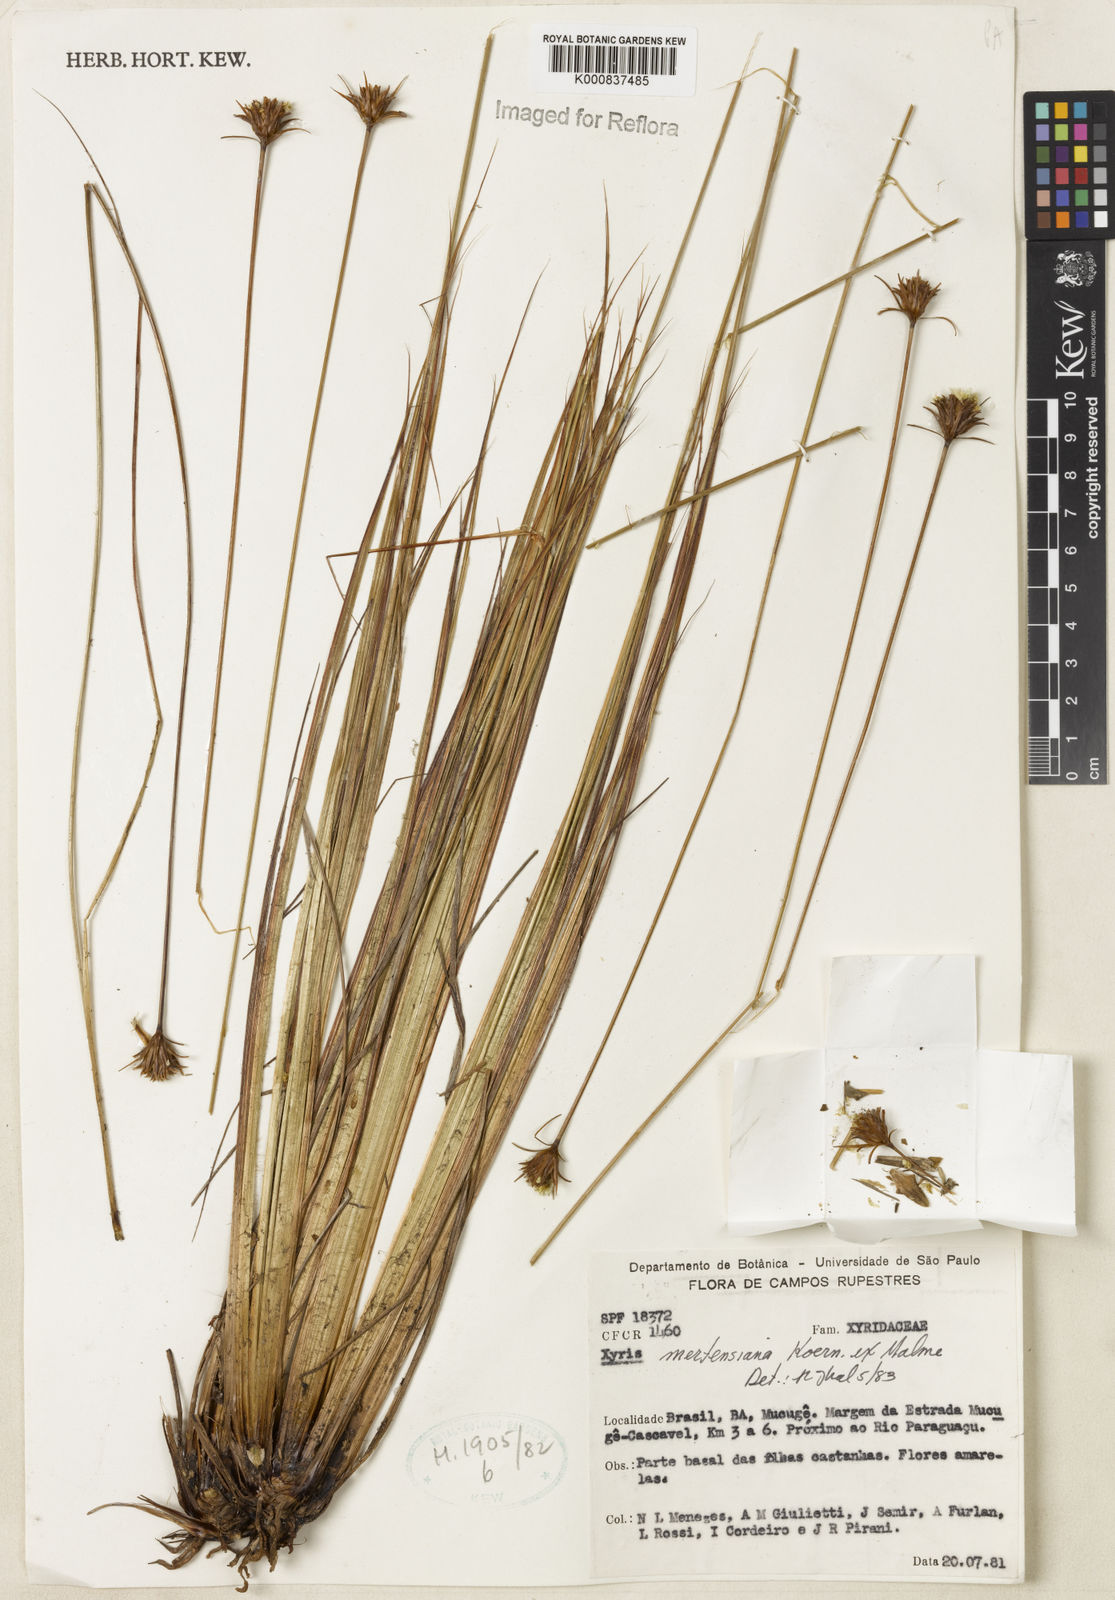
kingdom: Plantae
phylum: Tracheophyta
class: Liliopsida
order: Poales
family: Xyridaceae
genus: Xyris
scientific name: Xyris
